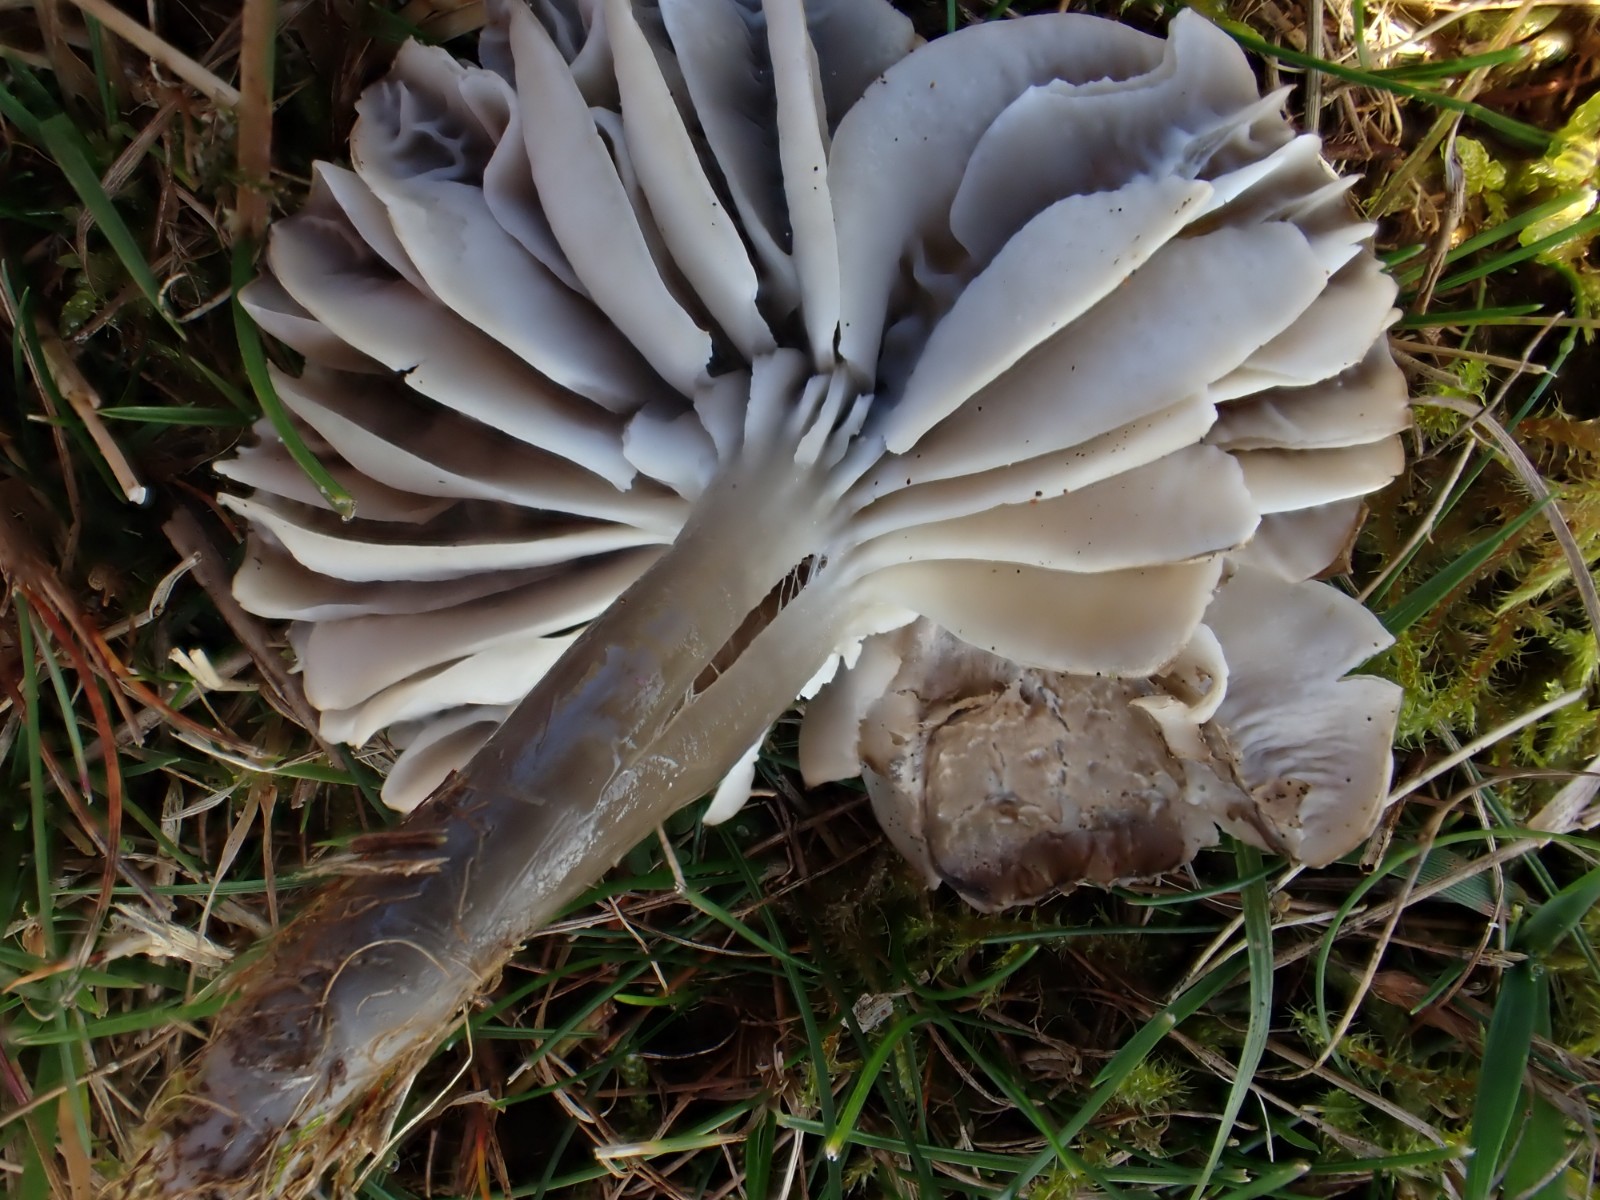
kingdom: Fungi
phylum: Basidiomycota
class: Agaricomycetes
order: Agaricales
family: Hygrophoraceae
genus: Gliophorus
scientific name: Gliophorus irrigatus
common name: slimet vokshat
